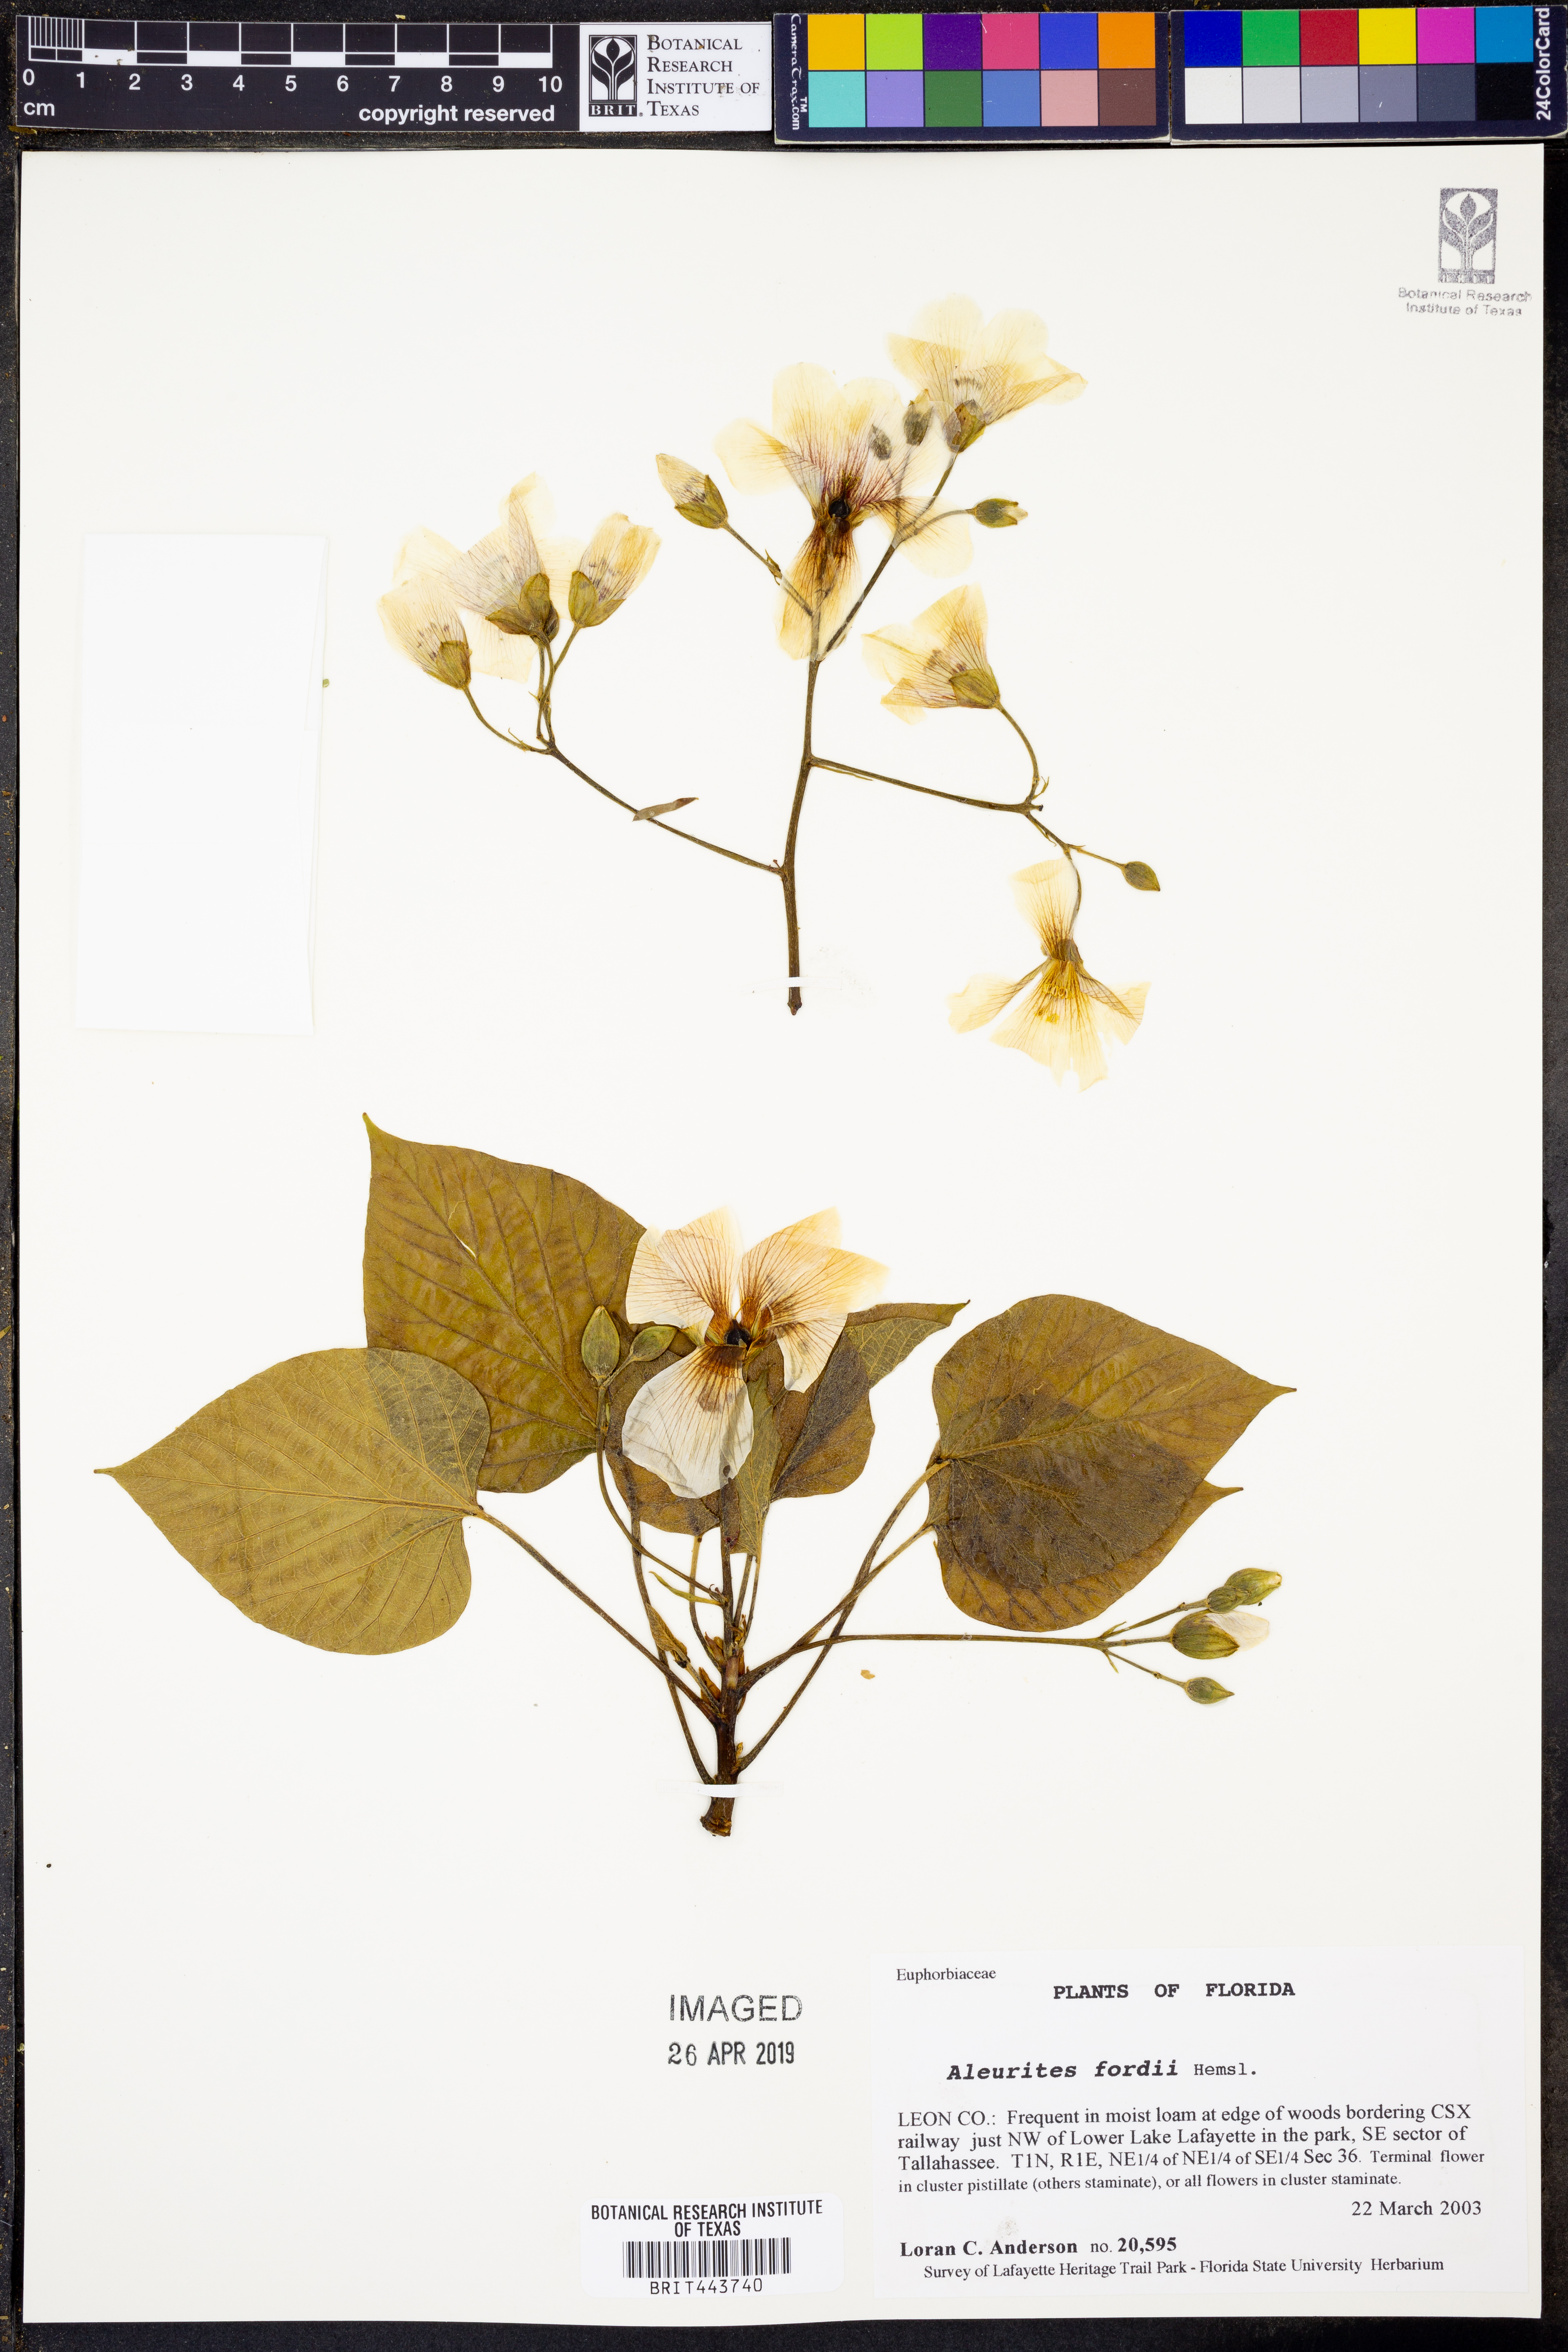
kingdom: Plantae
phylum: Tracheophyta
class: Magnoliopsida
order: Malpighiales
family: Euphorbiaceae
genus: Vernicia
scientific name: Vernicia fordii
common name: Tungoil tree
